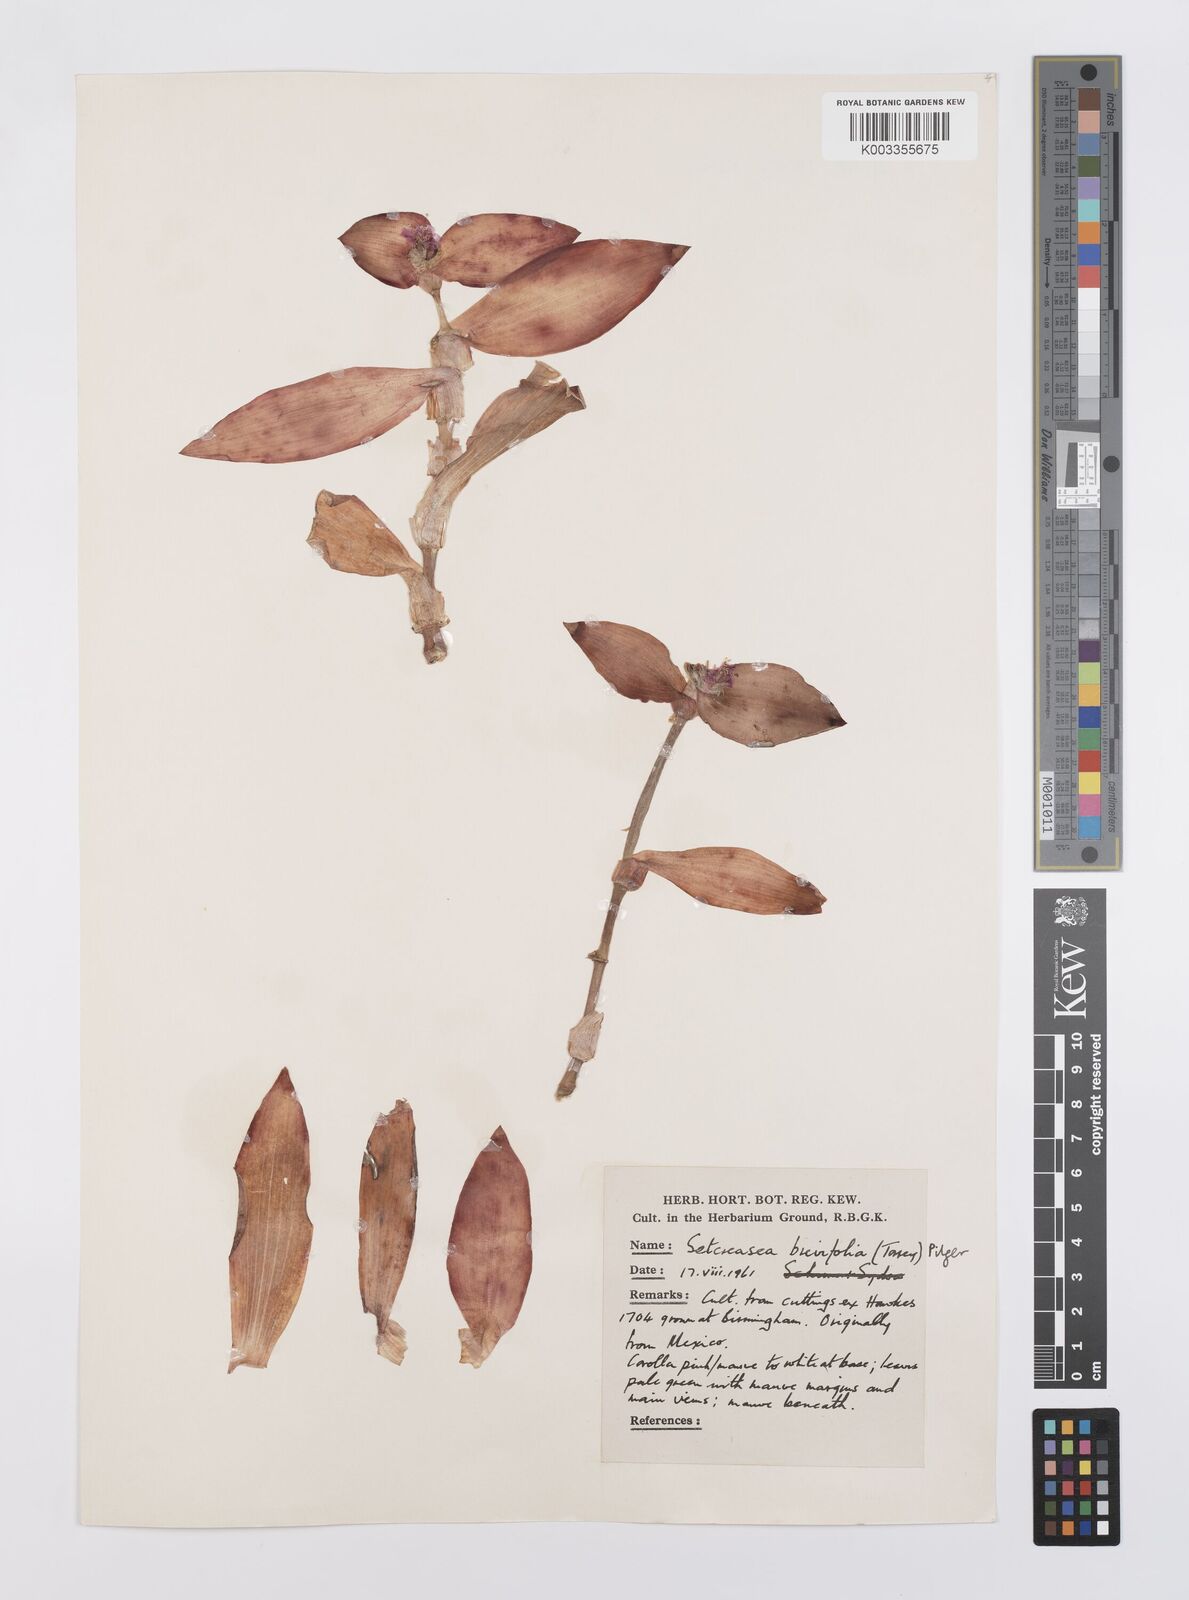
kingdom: Plantae
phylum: Tracheophyta
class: Liliopsida
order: Commelinales
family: Commelinaceae
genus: Tradescantia
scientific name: Tradescantia pallida
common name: Purpleheart
